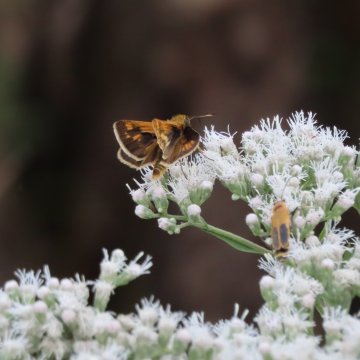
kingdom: Animalia
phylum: Arthropoda
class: Insecta
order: Lepidoptera
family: Hesperiidae
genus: Polites
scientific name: Polites coras
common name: Peck's Skipper
